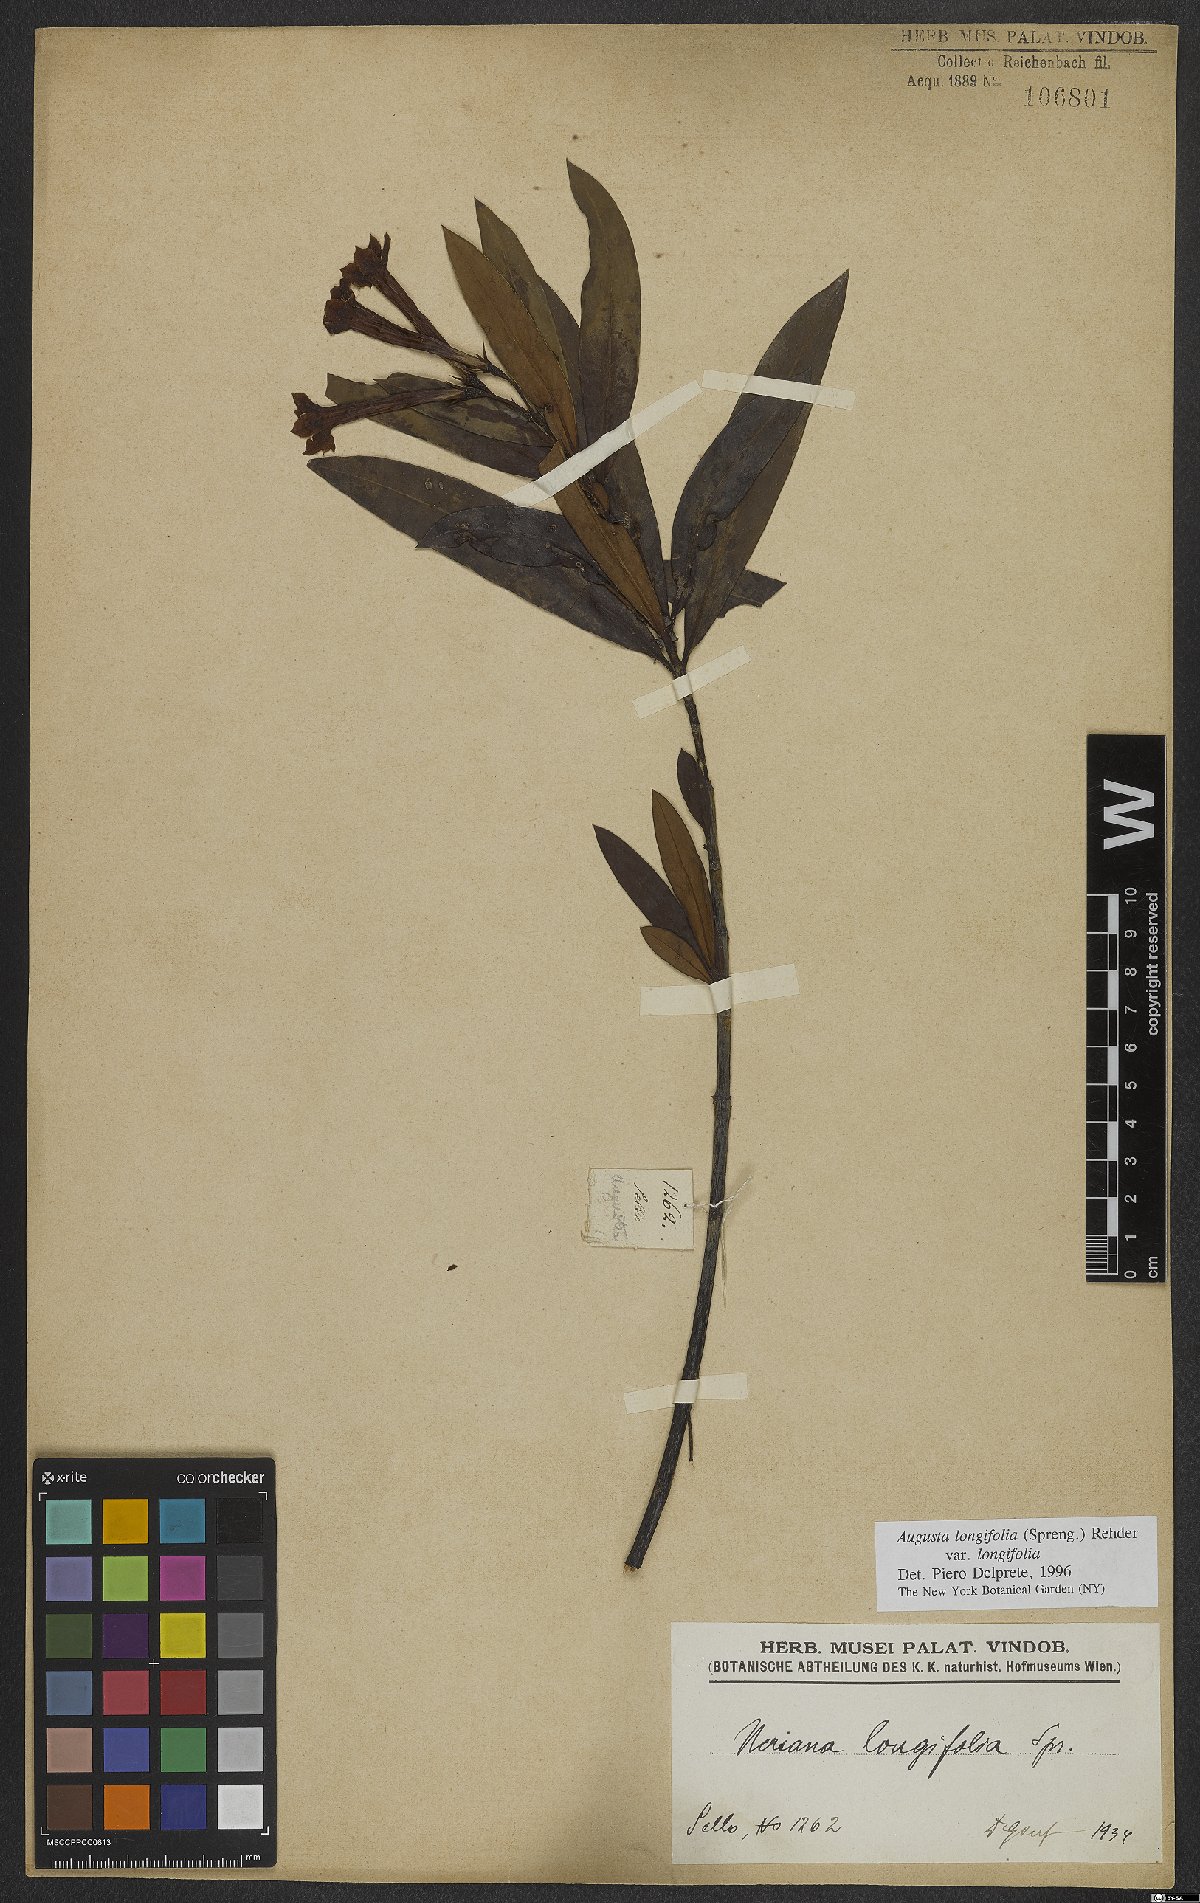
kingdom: Plantae
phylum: Tracheophyta
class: Magnoliopsida
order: Gentianales
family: Rubiaceae
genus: Augusta
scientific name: Augusta longifolia
